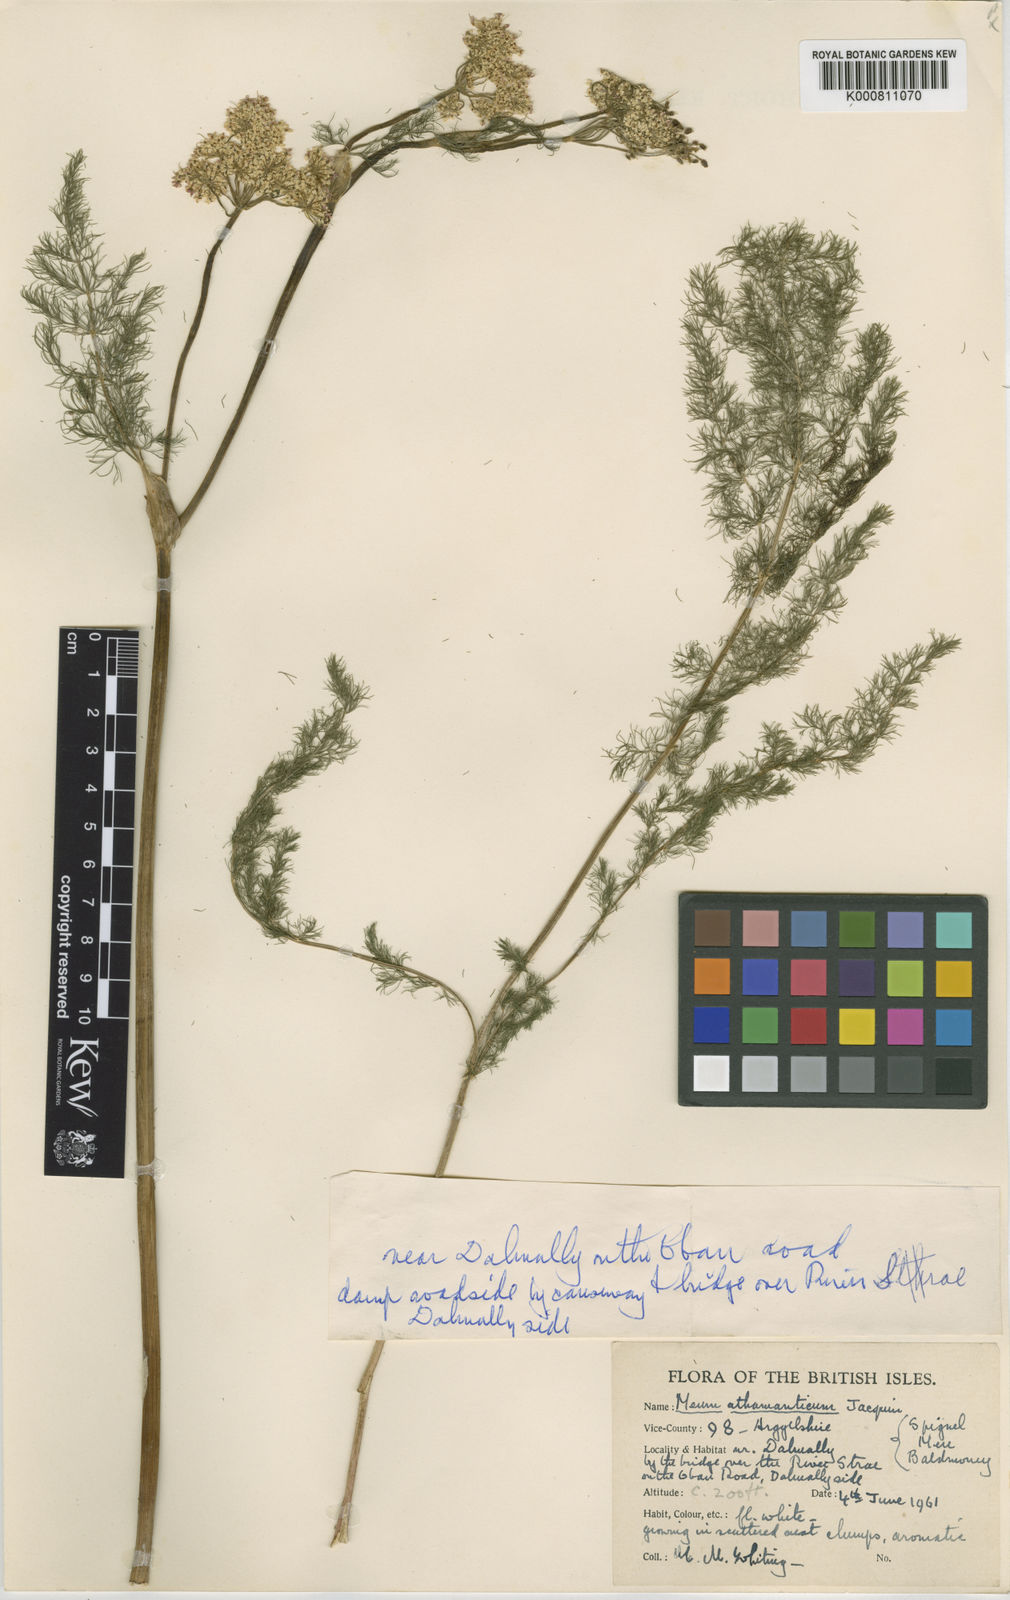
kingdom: Plantae
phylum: Tracheophyta
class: Magnoliopsida
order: Apiales
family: Apiaceae
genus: Meum
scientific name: Meum athamanticum
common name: Spignel
